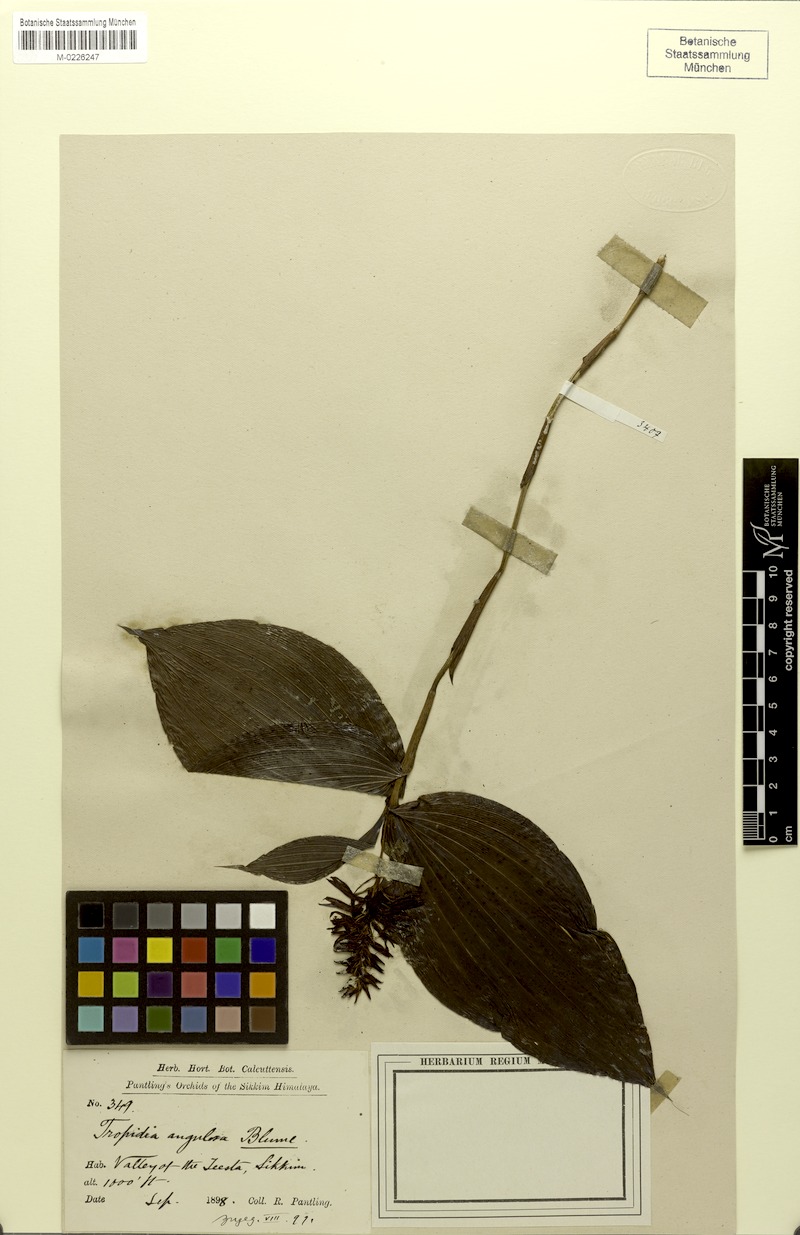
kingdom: Plantae
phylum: Tracheophyta
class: Liliopsida
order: Asparagales
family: Orchidaceae
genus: Tropidia
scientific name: Tropidia angulosa
